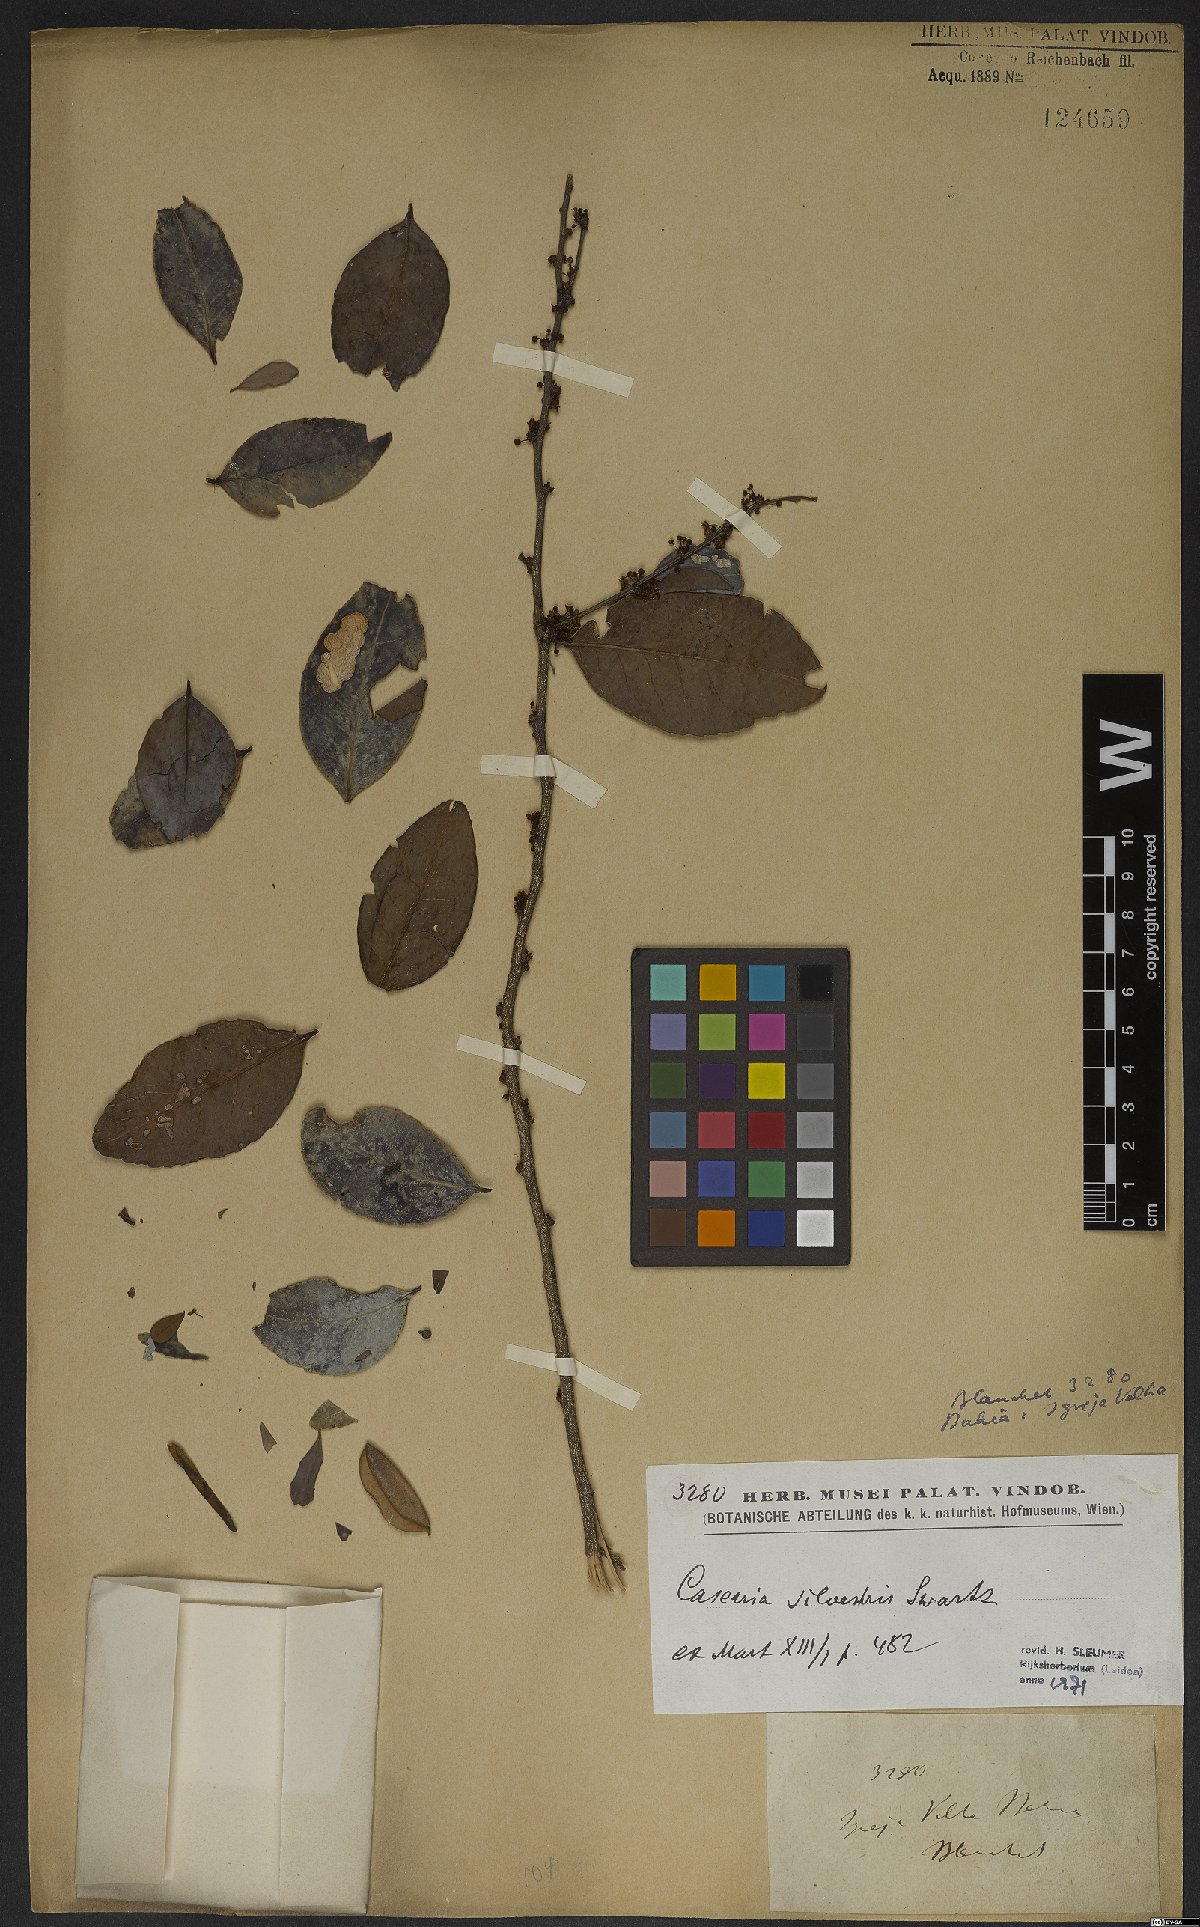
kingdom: Plantae
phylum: Tracheophyta
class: Magnoliopsida
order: Malpighiales
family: Salicaceae
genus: Casearia
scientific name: Casearia sylvestris
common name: Wild sage
